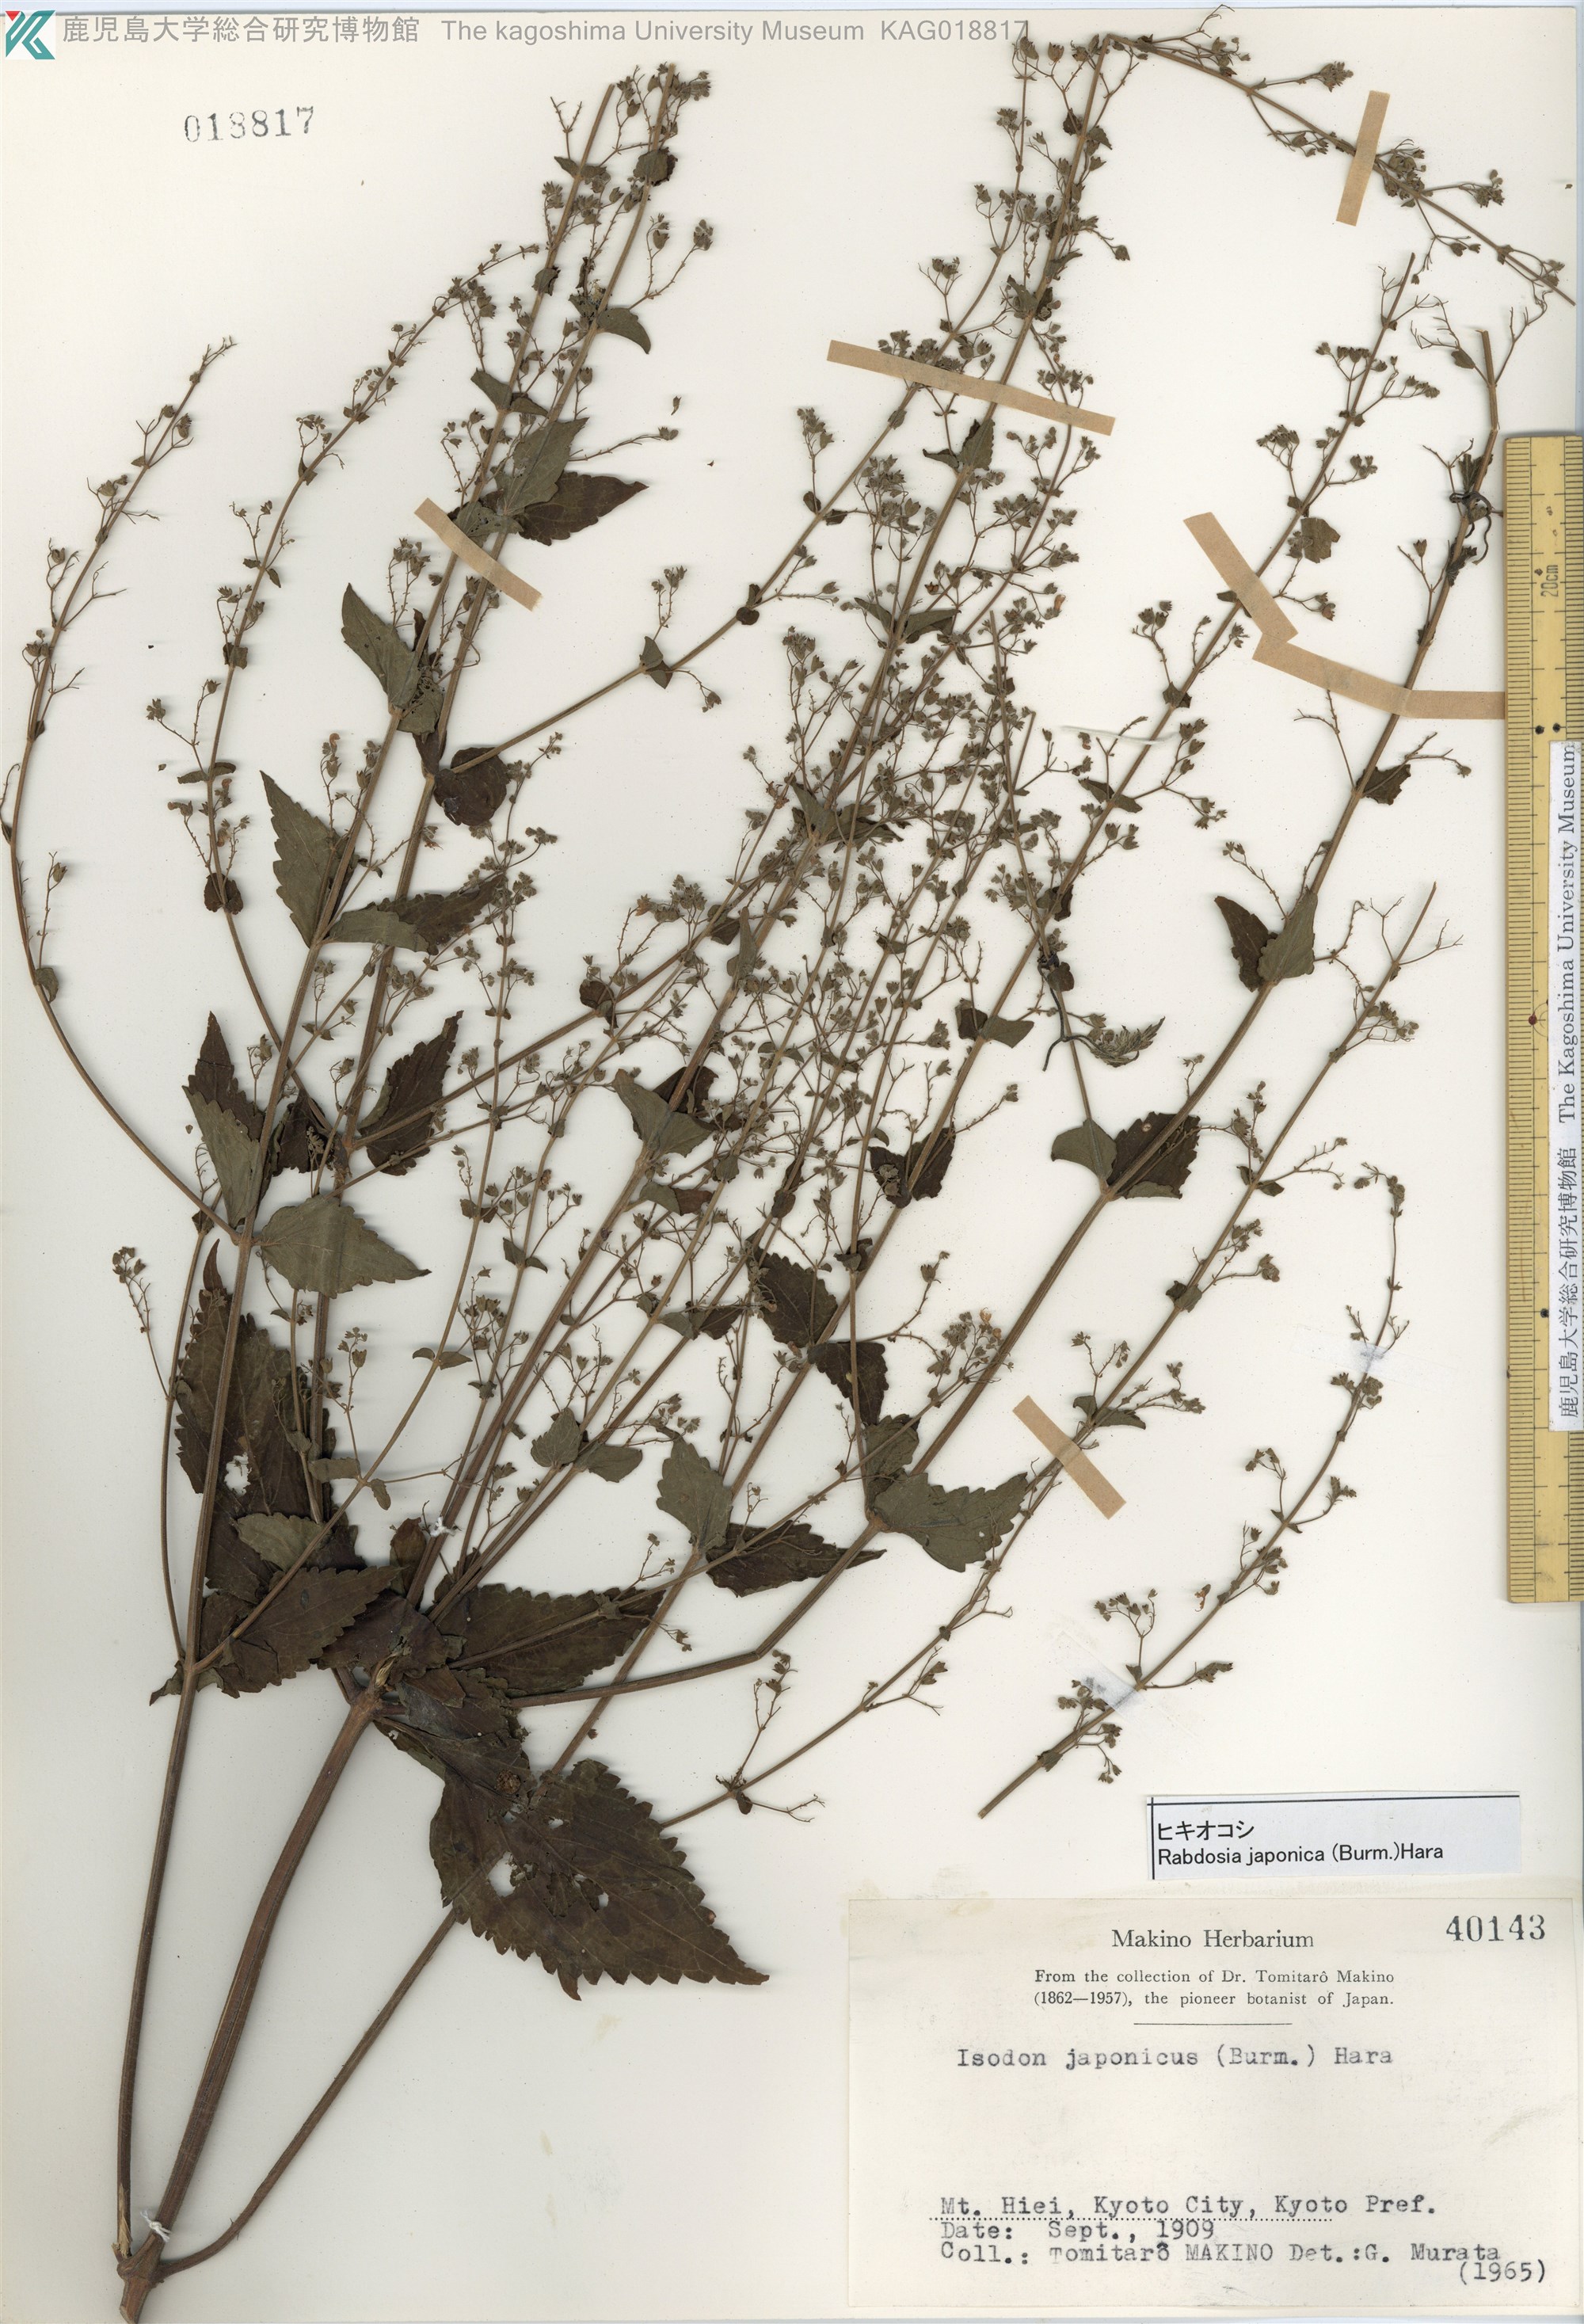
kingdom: Plantae
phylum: Tracheophyta
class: Magnoliopsida
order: Lamiales
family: Lamiaceae
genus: Isodon
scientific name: Isodon japonicus
